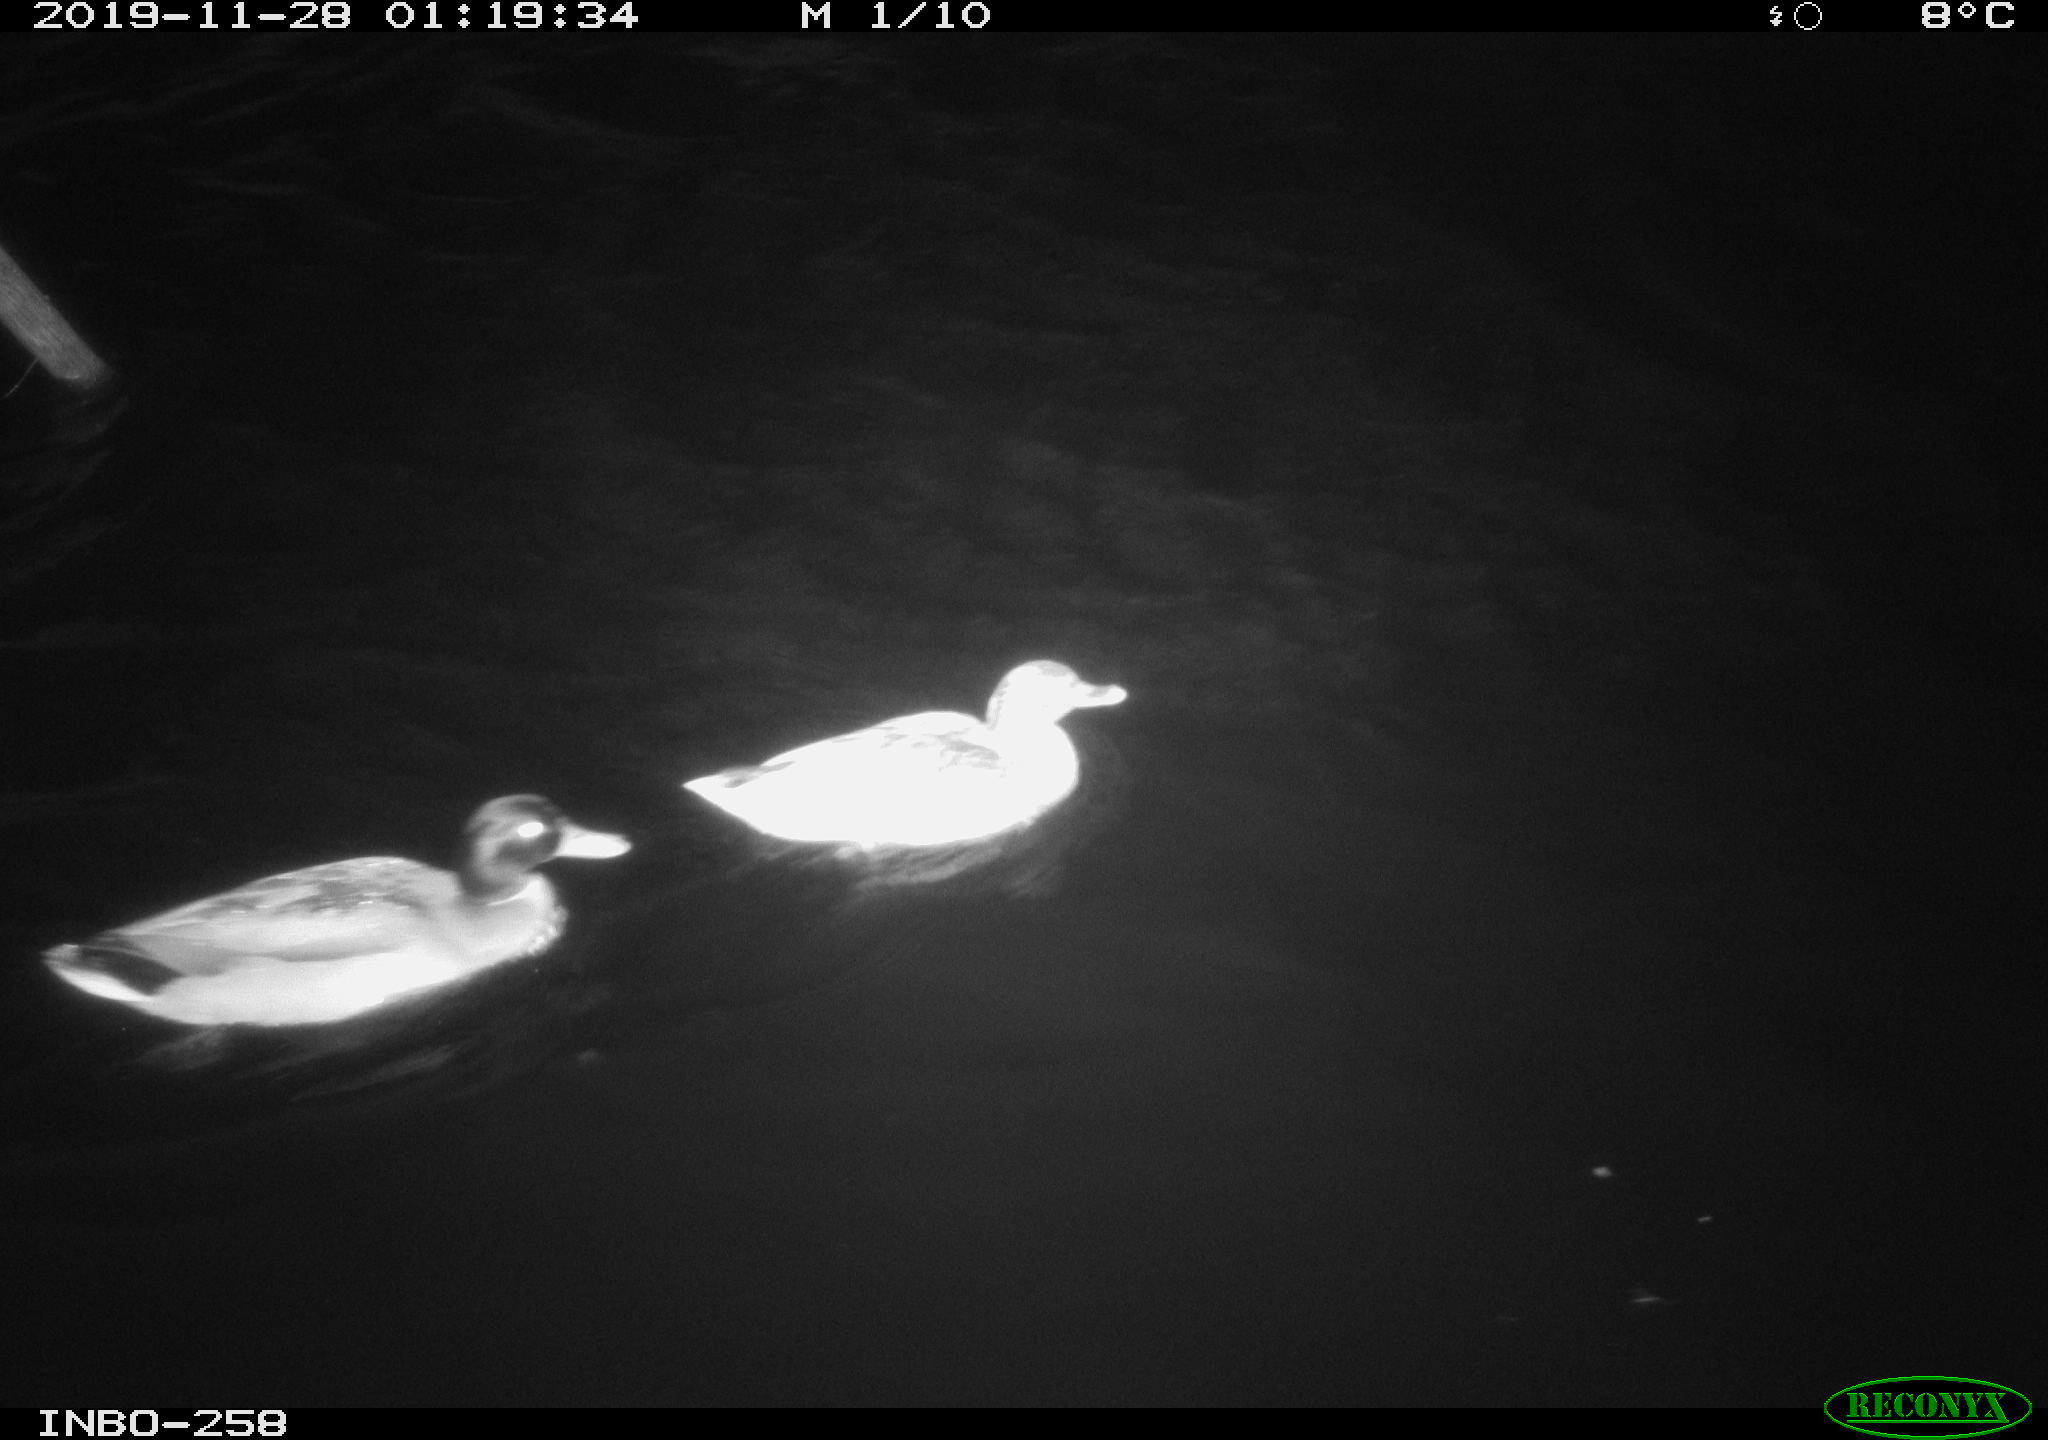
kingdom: Animalia
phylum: Chordata
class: Aves
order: Anseriformes
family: Anatidae
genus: Anas
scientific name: Anas platyrhynchos
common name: Mallard
